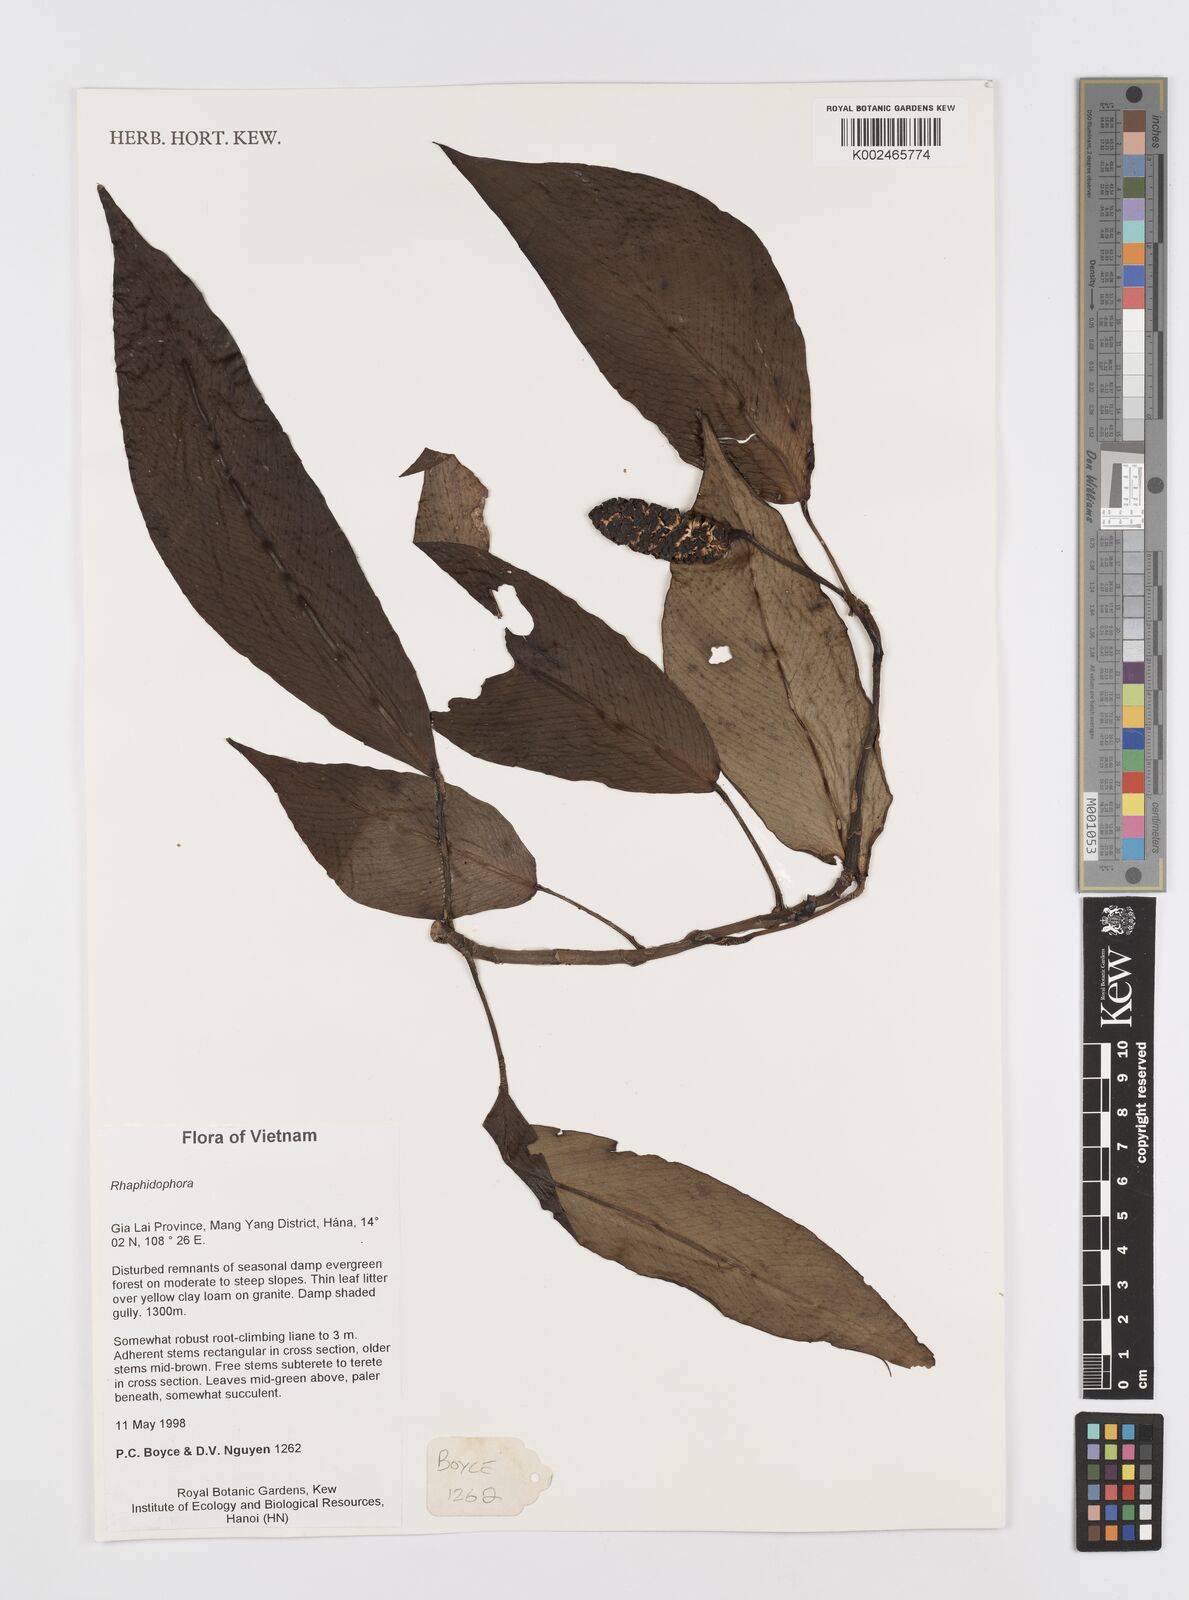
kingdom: Plantae
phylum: Tracheophyta
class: Liliopsida
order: Alismatales
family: Araceae
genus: Rhaphidophora
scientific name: Rhaphidophora
